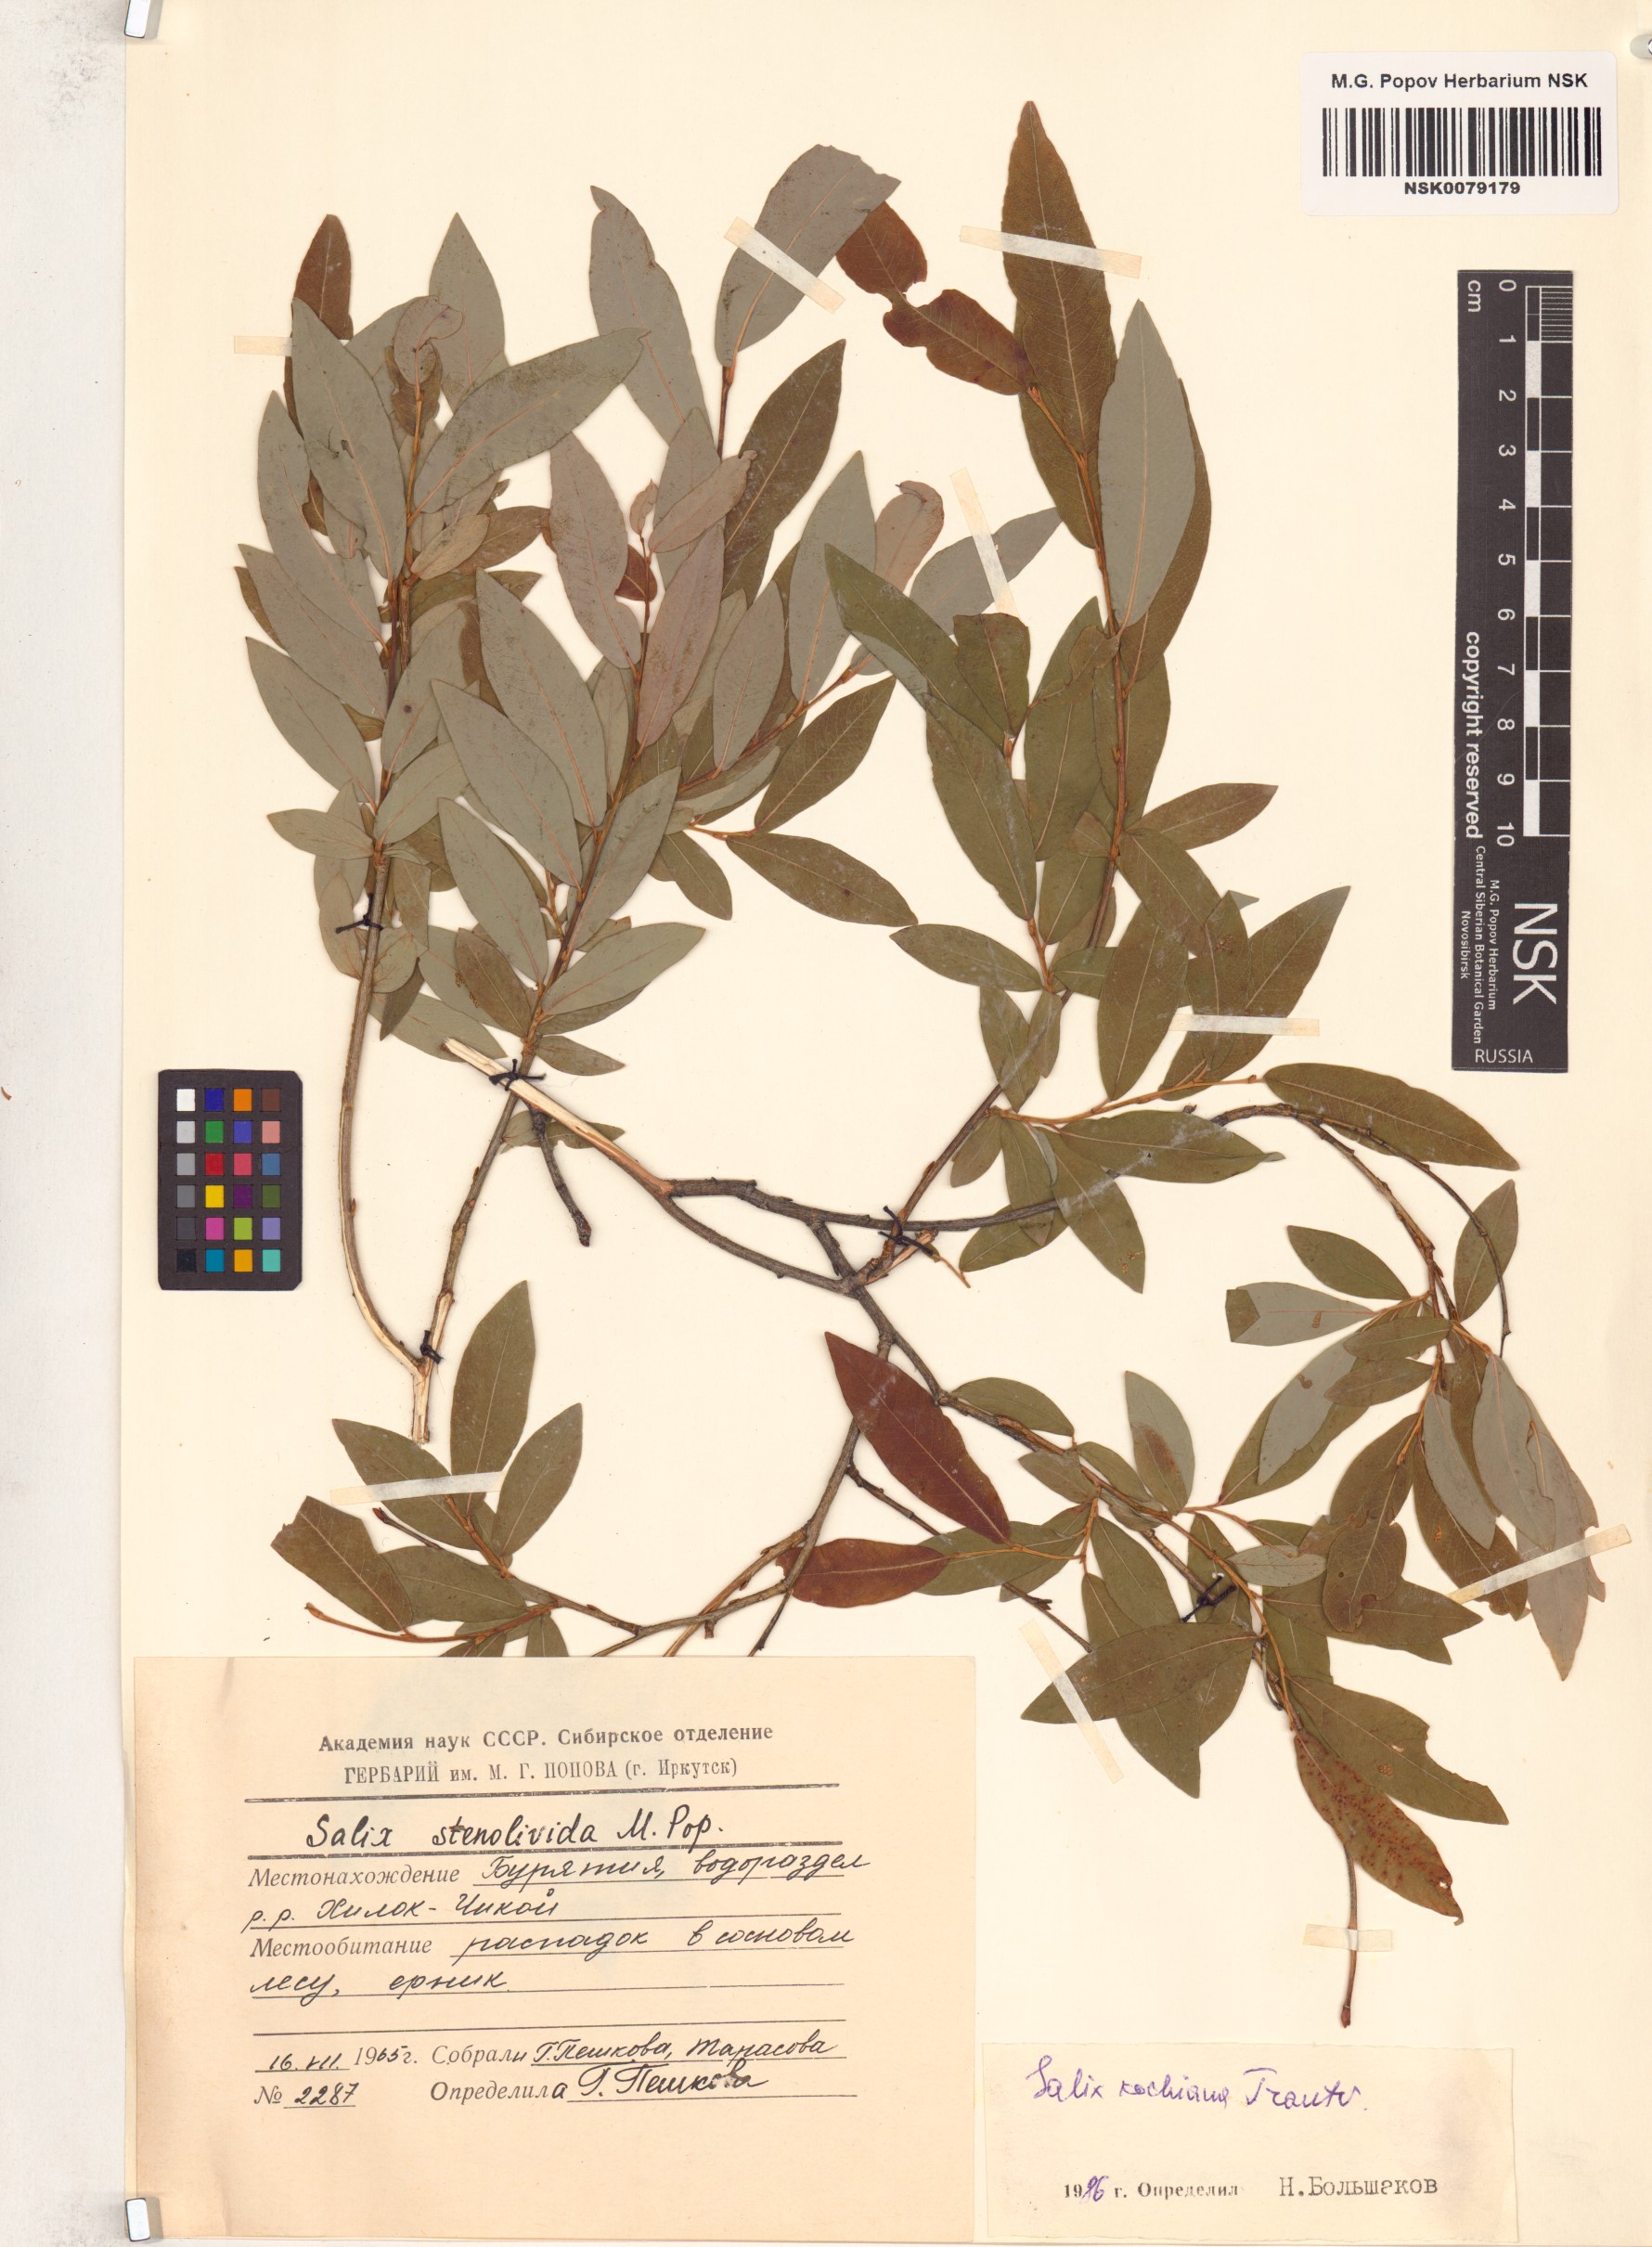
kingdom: Plantae
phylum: Tracheophyta
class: Magnoliopsida
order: Malpighiales
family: Salicaceae
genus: Salix
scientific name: Salix kochiana
